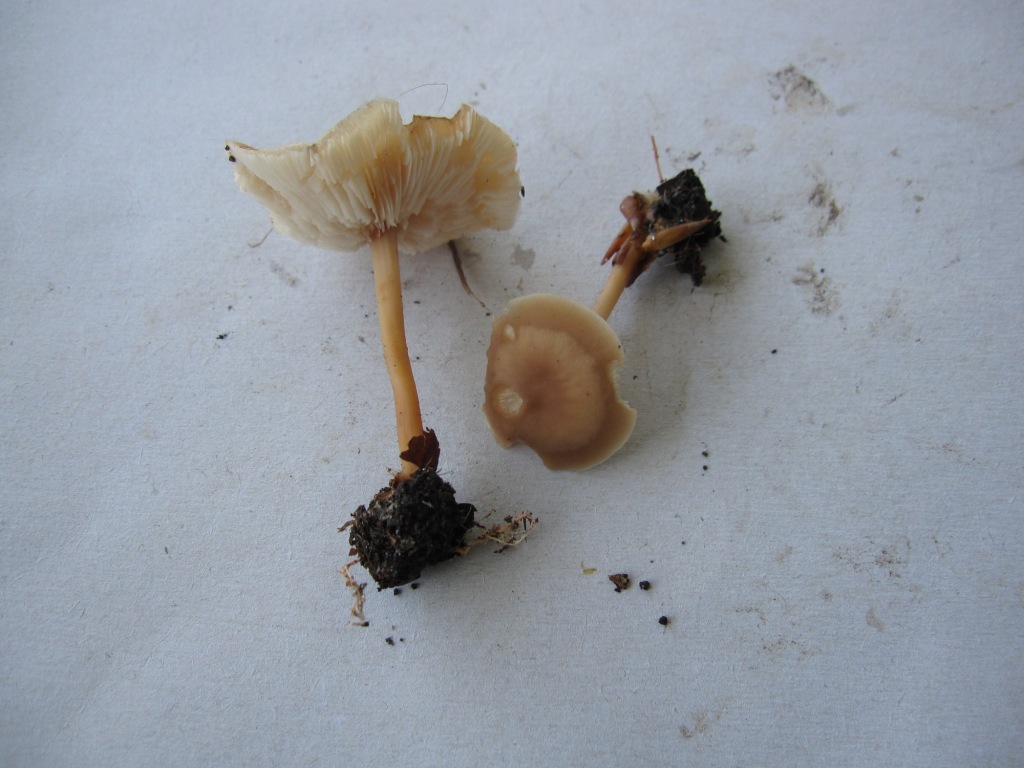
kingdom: Fungi
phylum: Basidiomycota
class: Agaricomycetes
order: Agaricales
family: Omphalotaceae
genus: Gymnopus
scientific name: Gymnopus aquosus
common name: bleg fladhat
